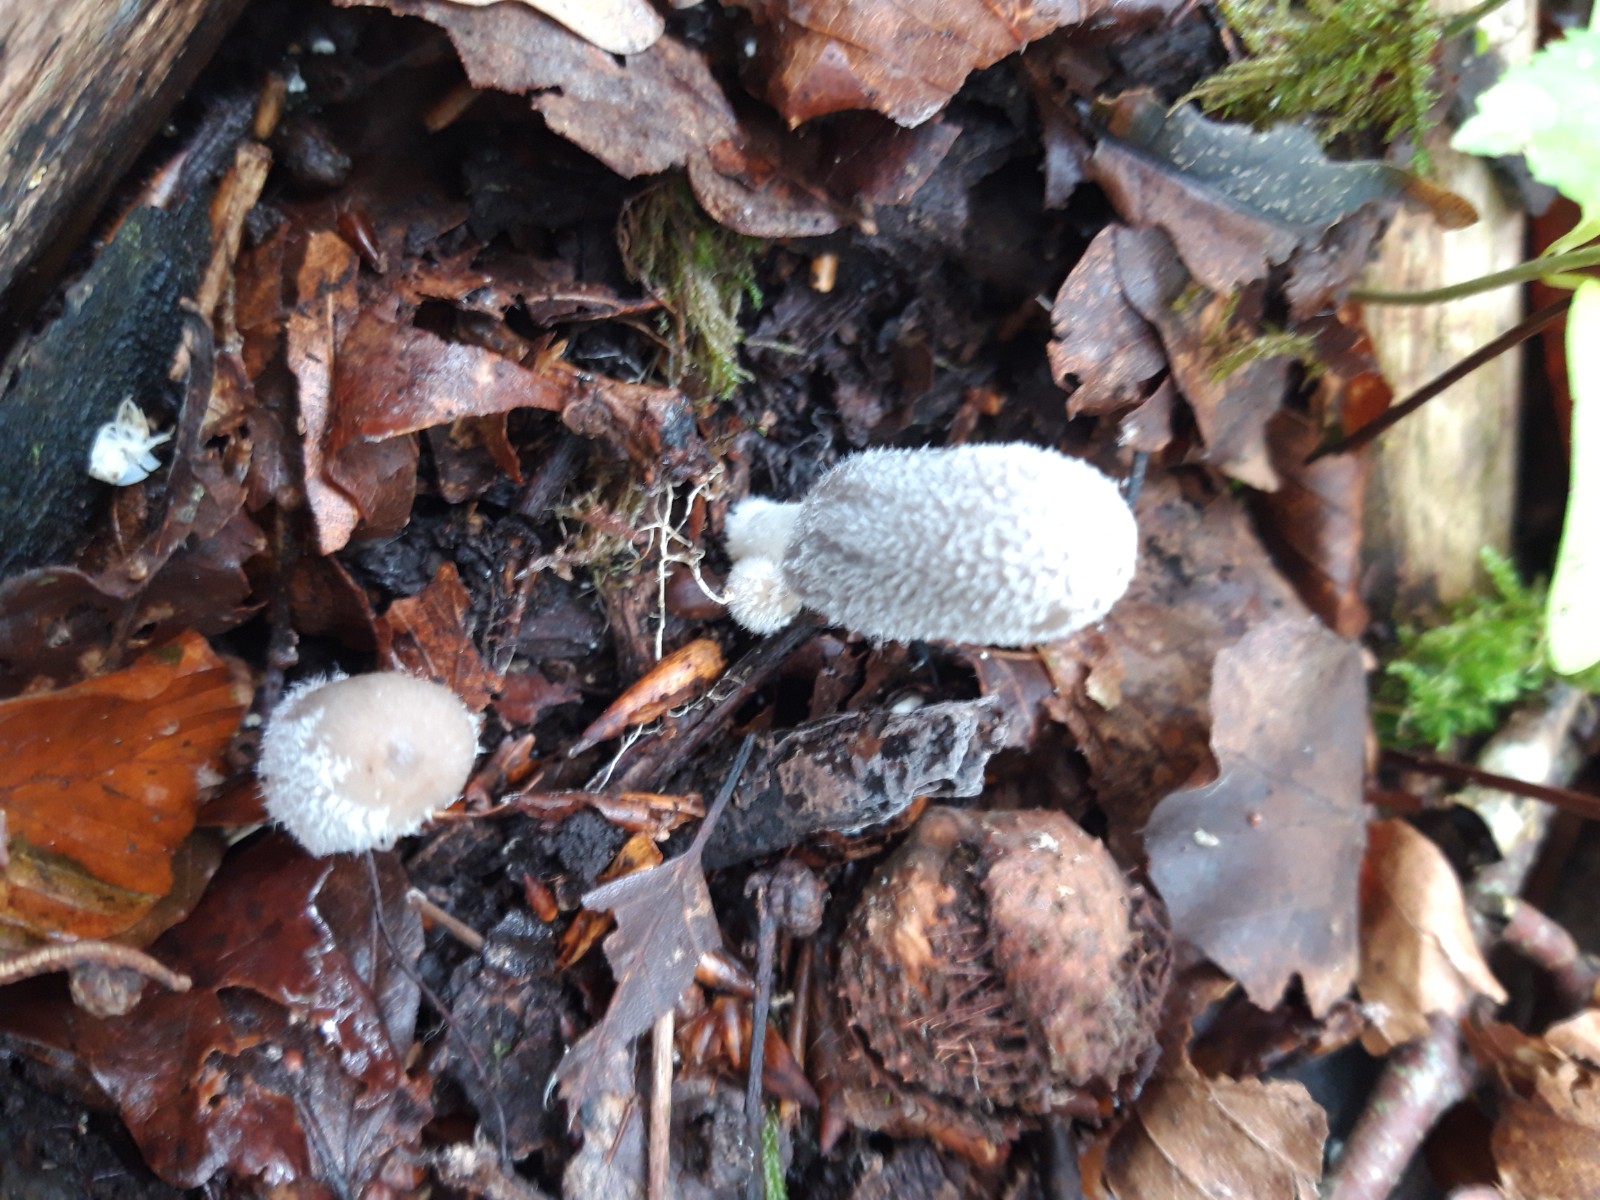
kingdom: Fungi
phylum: Basidiomycota
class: Agaricomycetes
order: Agaricales
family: Psathyrellaceae
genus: Coprinopsis
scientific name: Coprinopsis lagopus
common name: dunstokket blækhat
